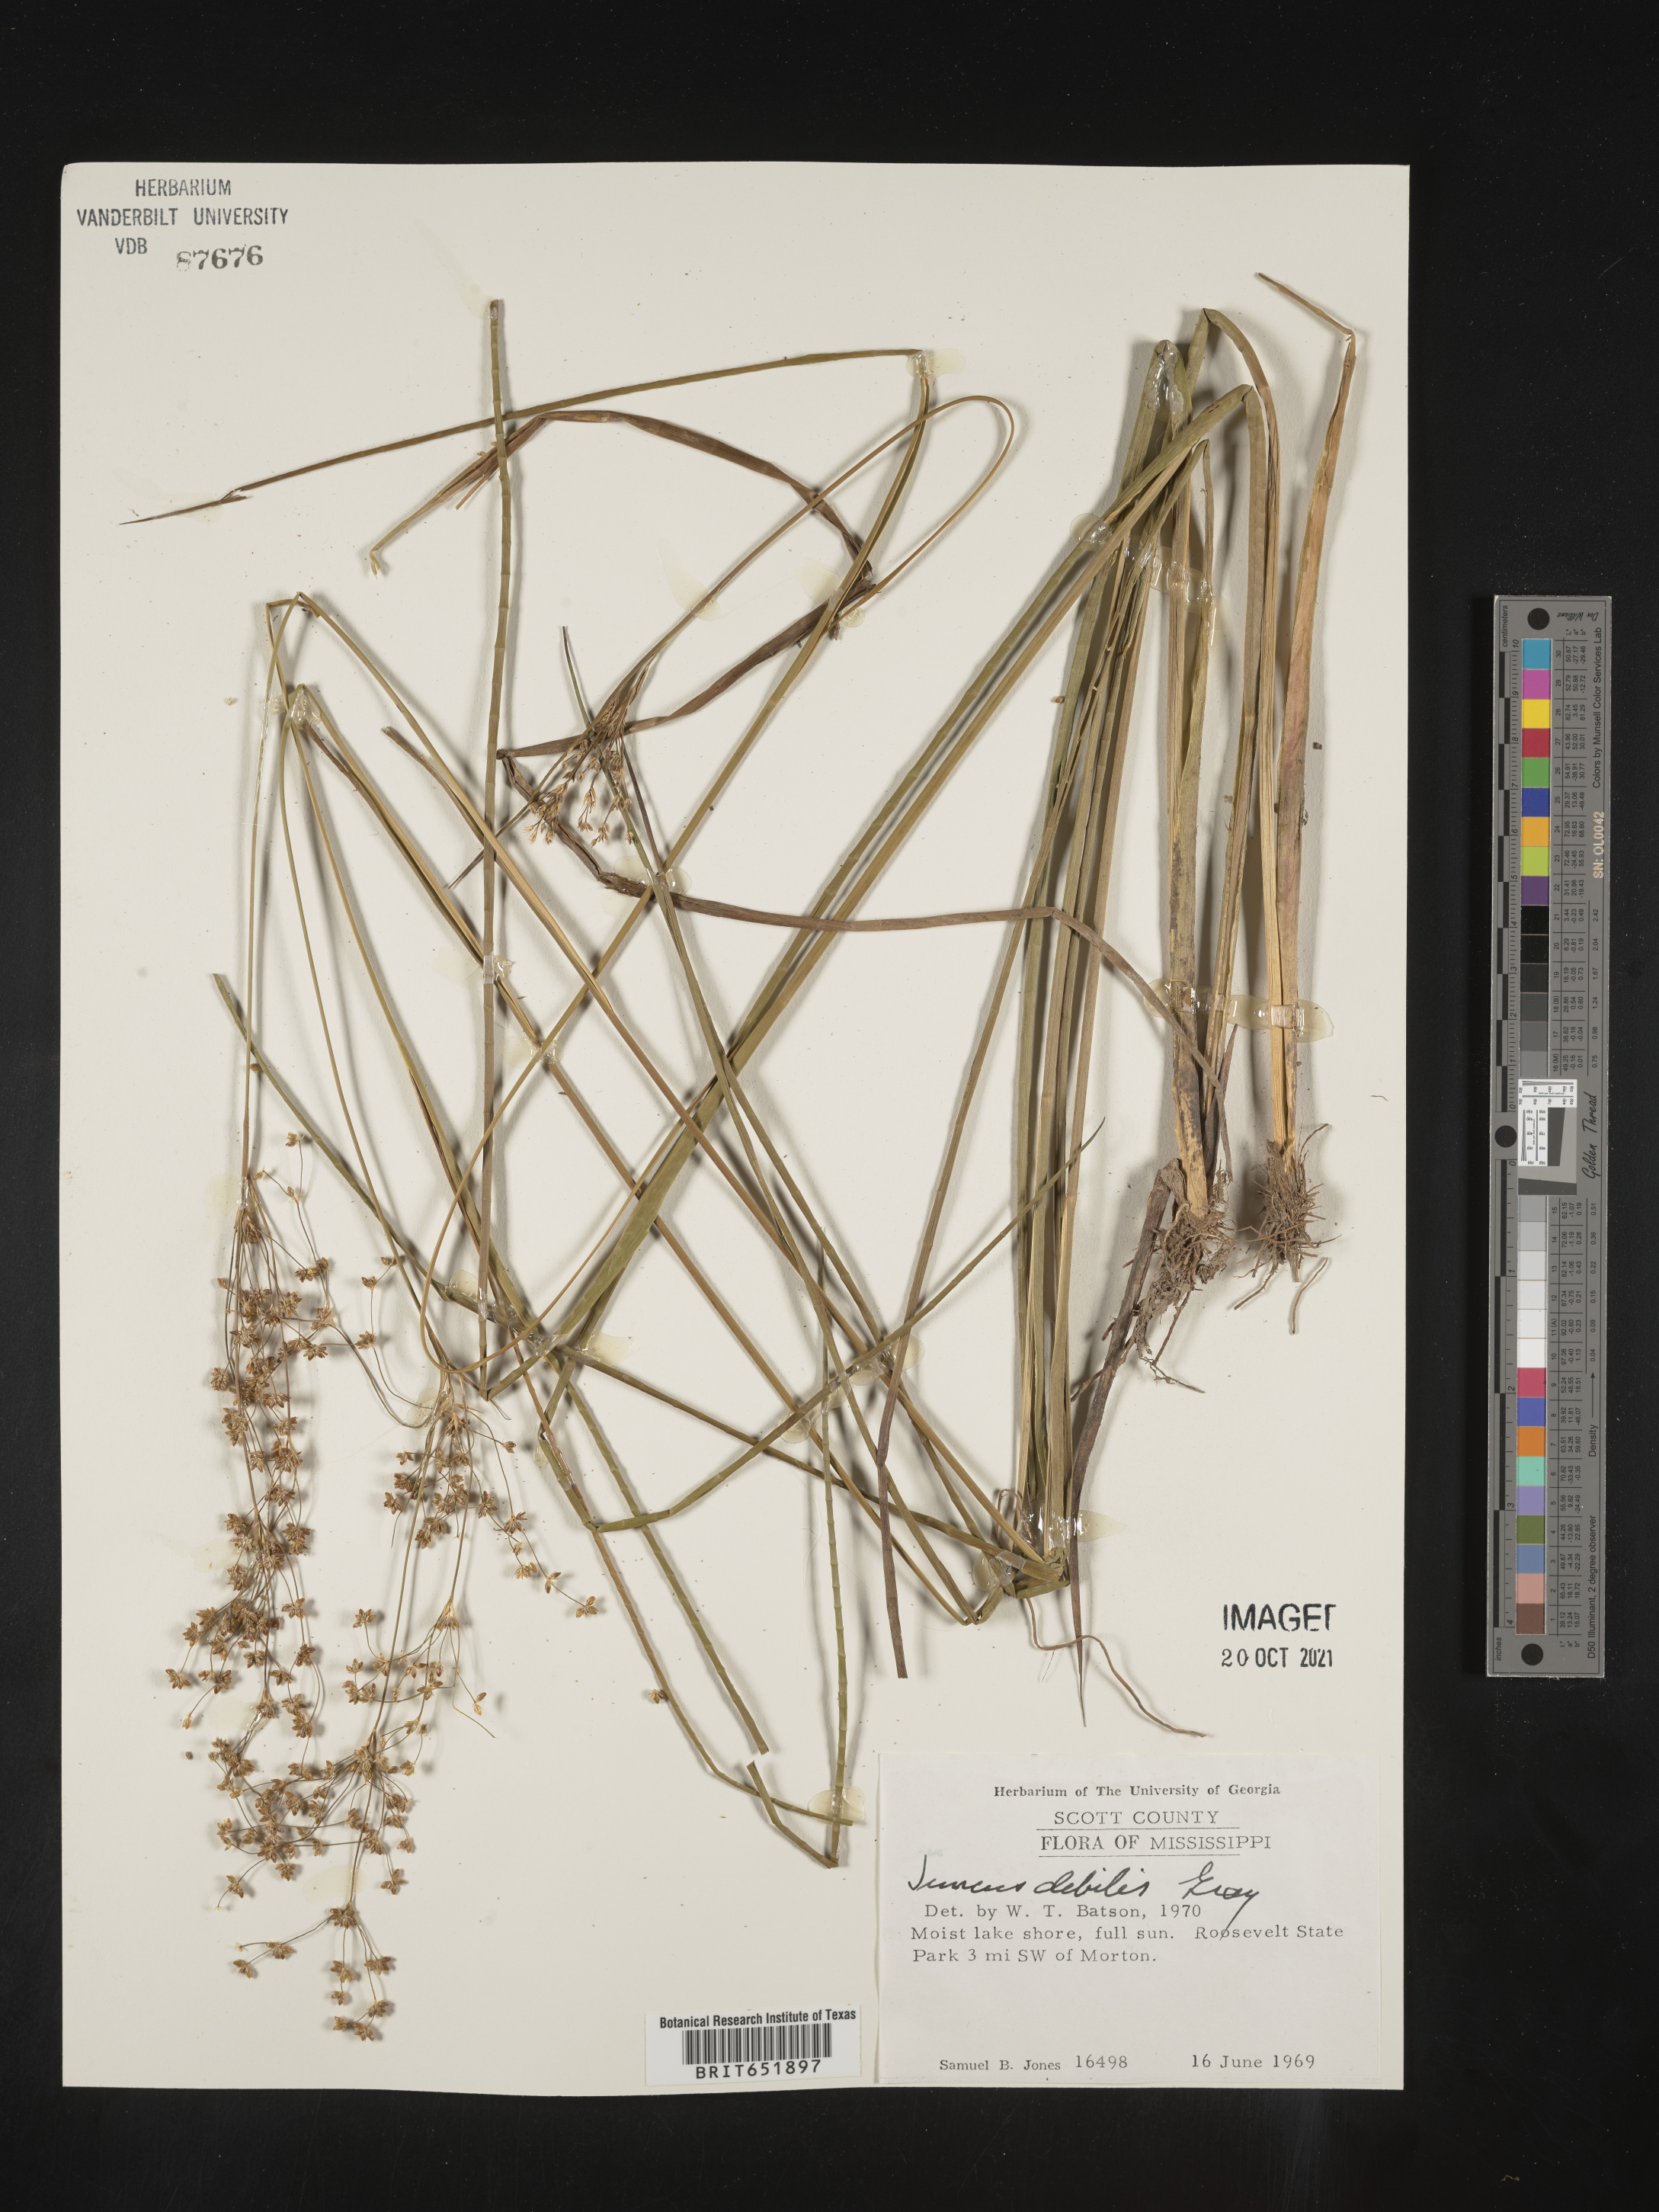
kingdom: Plantae
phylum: Tracheophyta
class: Liliopsida
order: Poales
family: Juncaceae
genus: Juncus
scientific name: Juncus debilis
